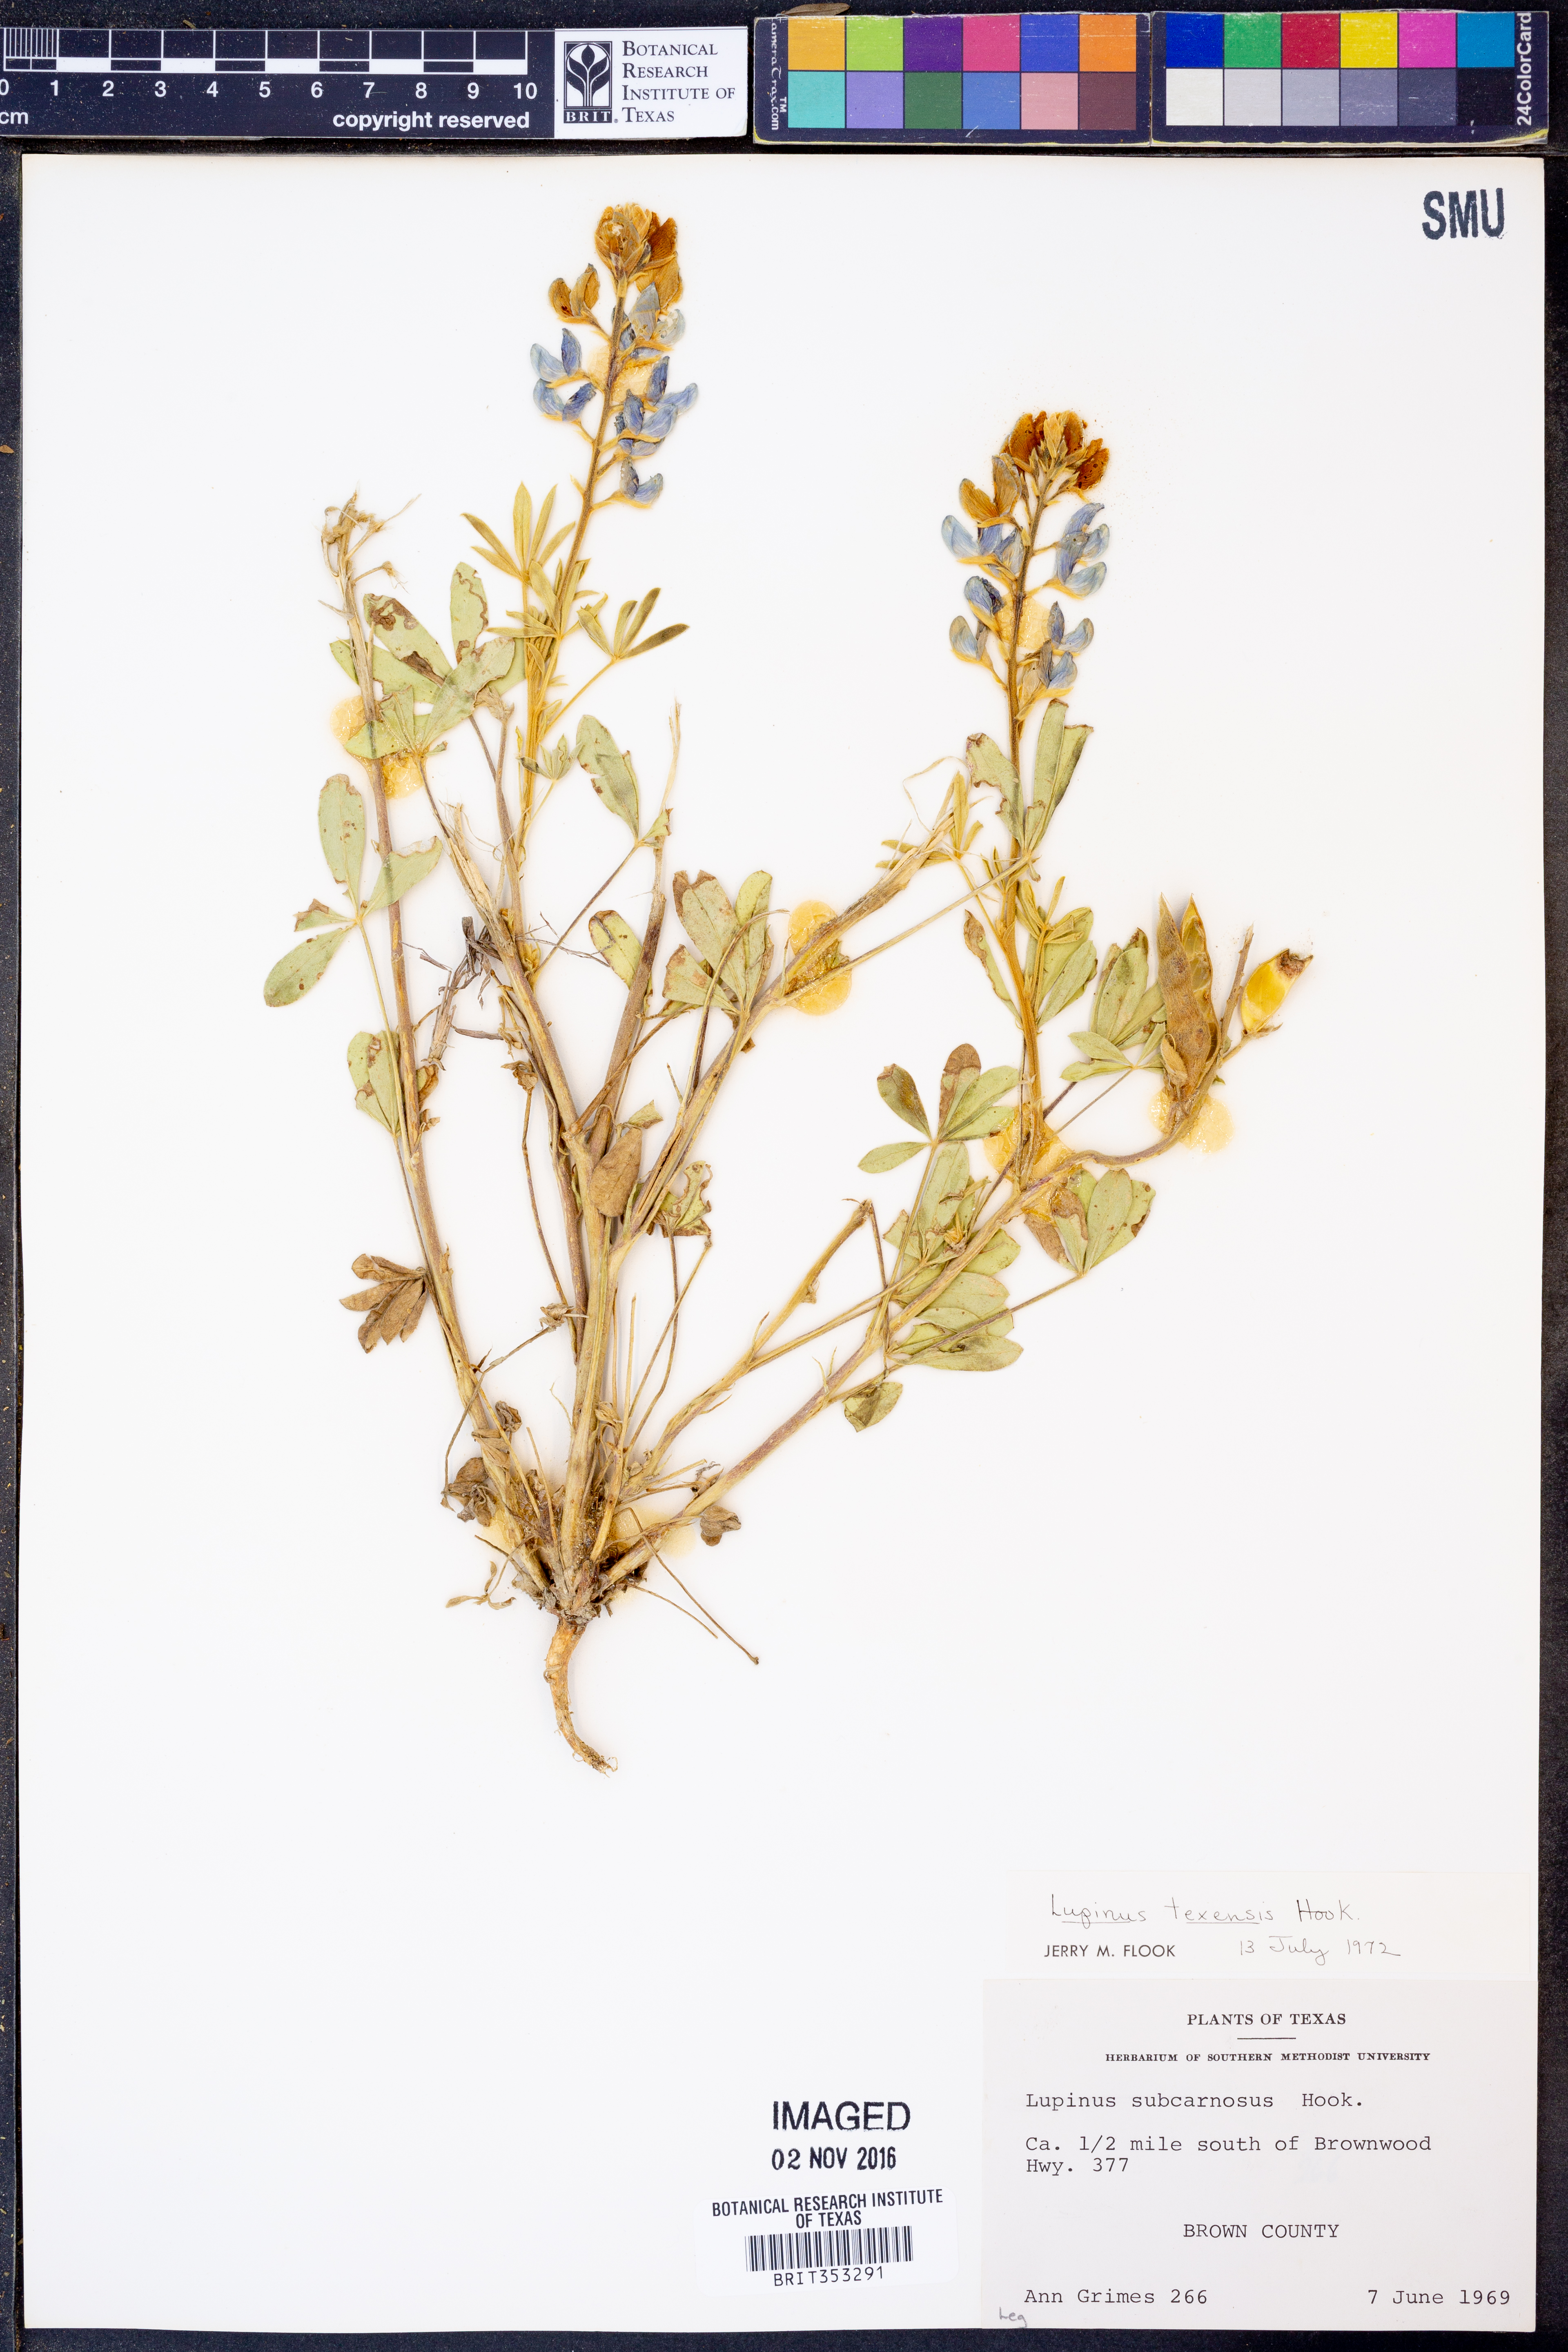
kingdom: Plantae
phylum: Tracheophyta
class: Magnoliopsida
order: Fabales
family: Fabaceae
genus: Lupinus
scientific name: Lupinus texensis
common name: Texas bluebonnet
